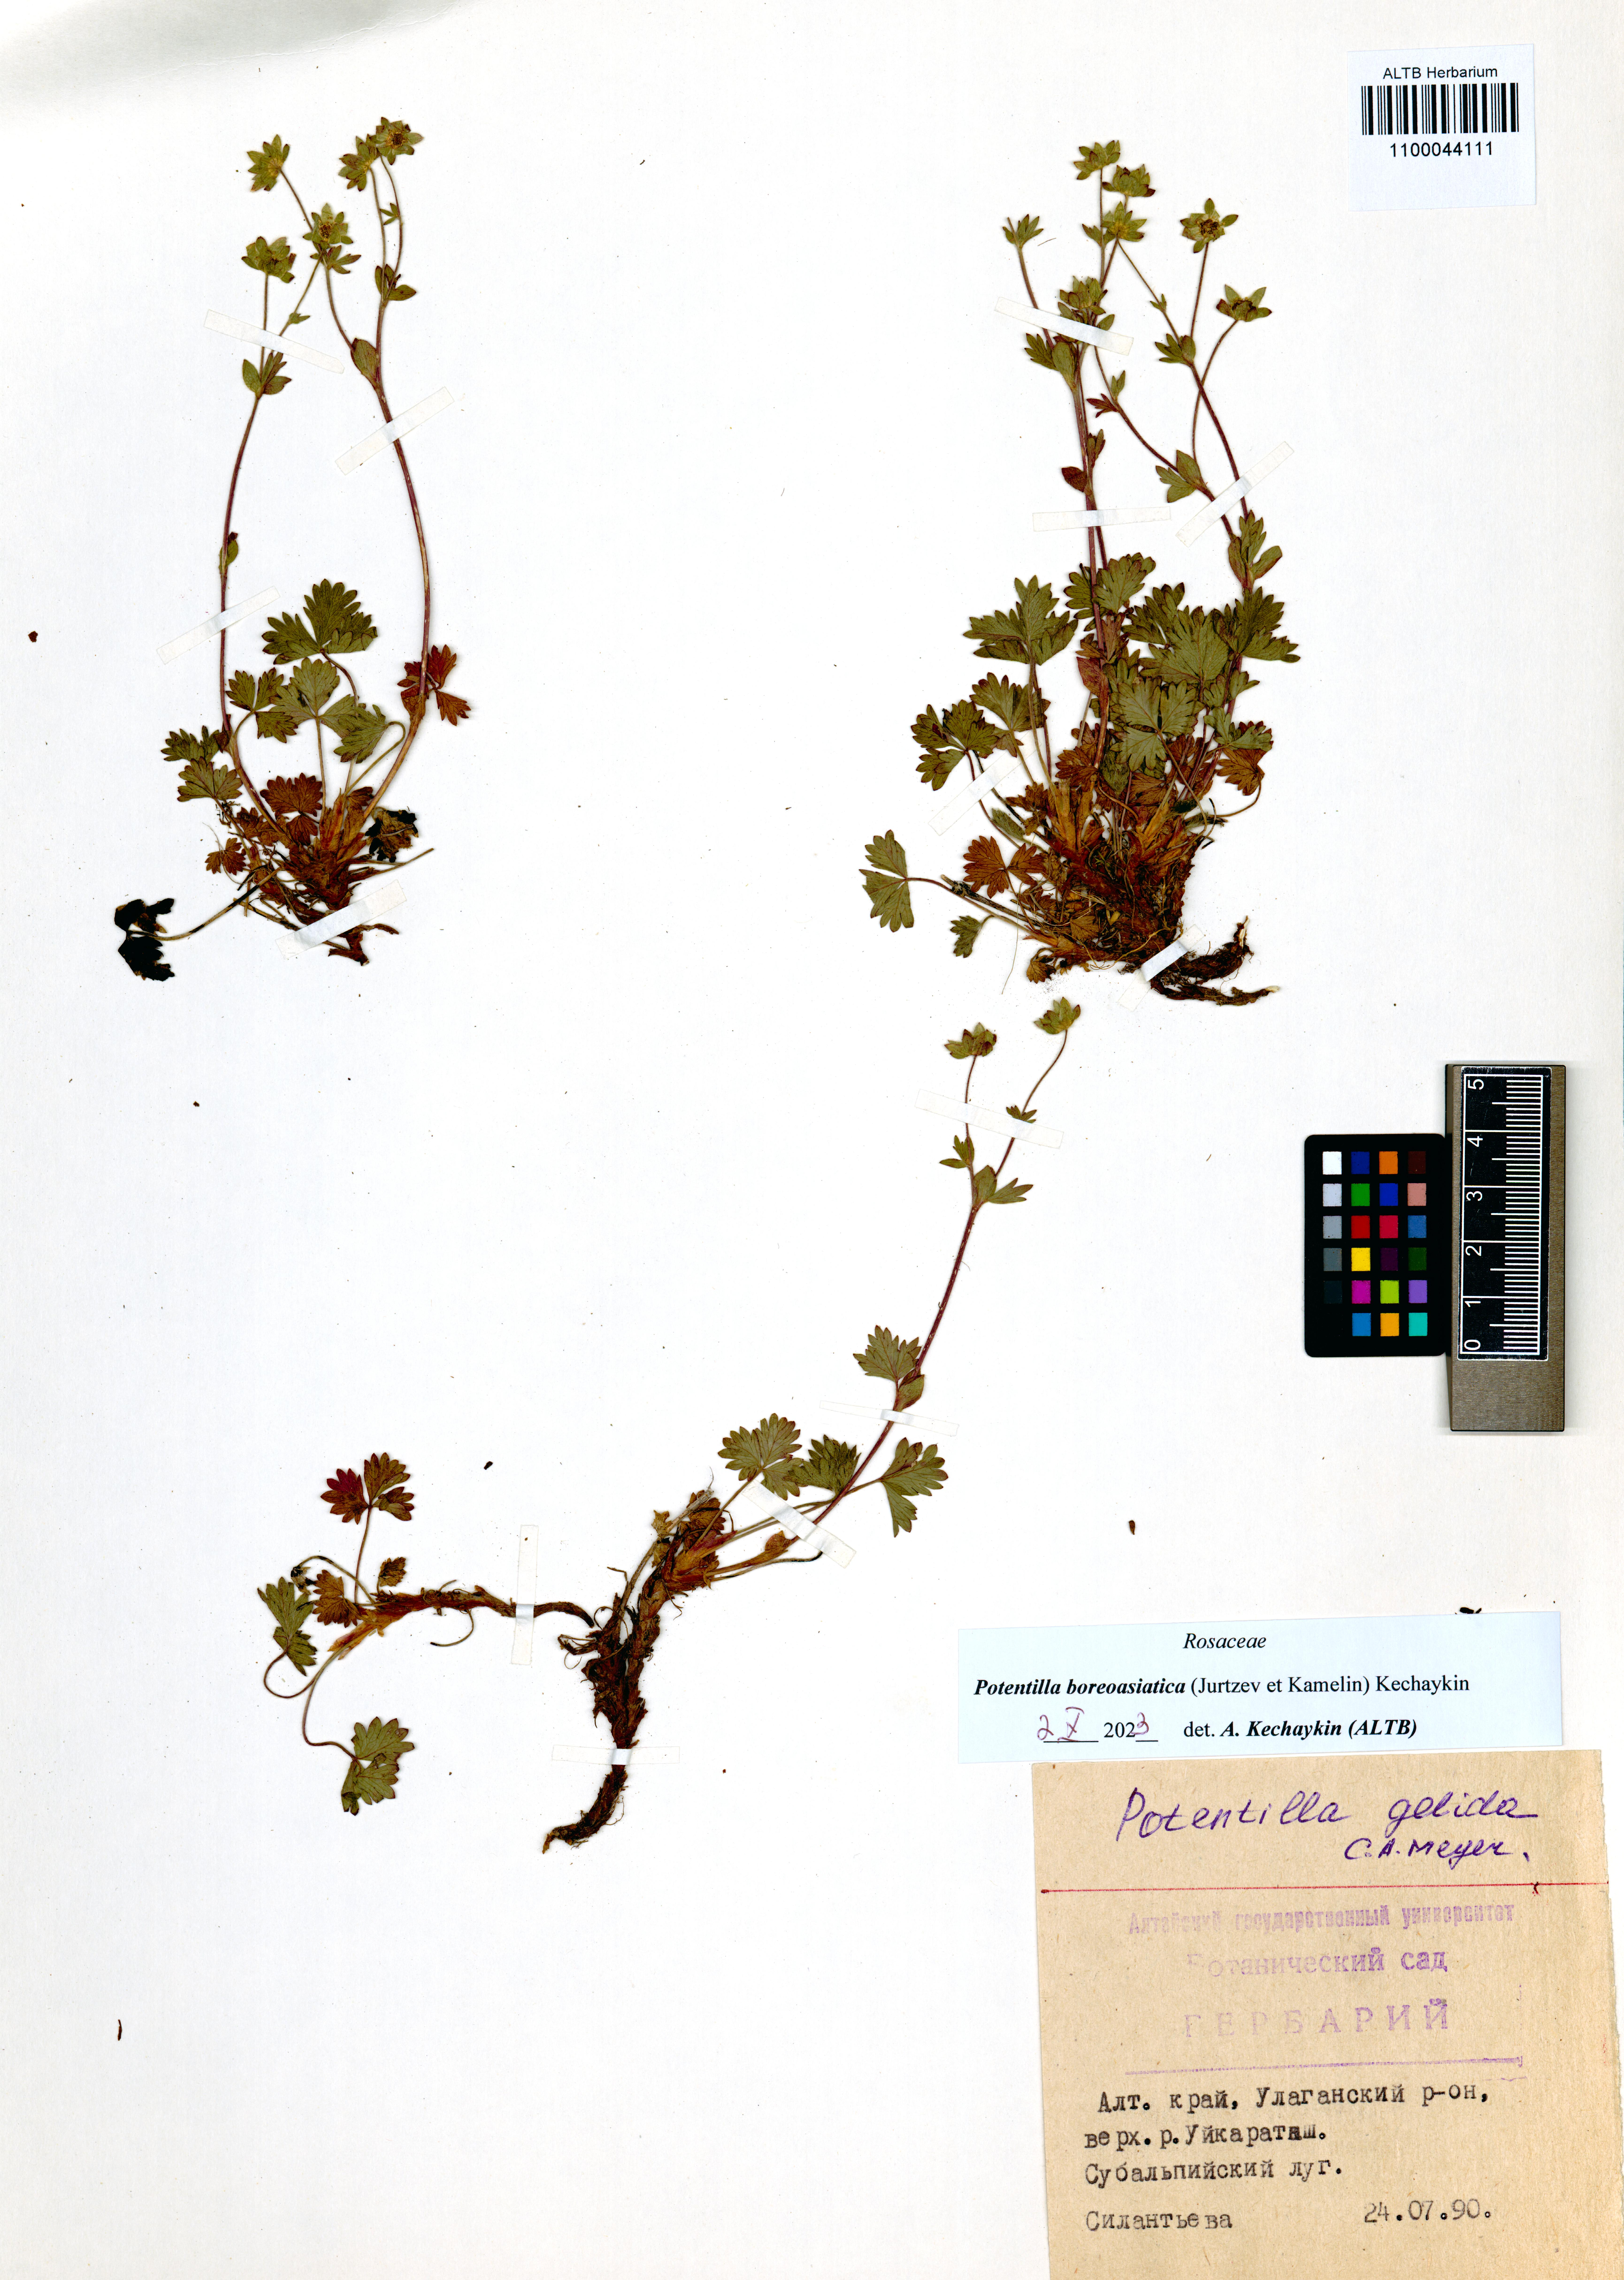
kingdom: Plantae
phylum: Tracheophyta
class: Magnoliopsida
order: Rosales
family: Rosaceae
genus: Potentilla
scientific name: Potentilla
